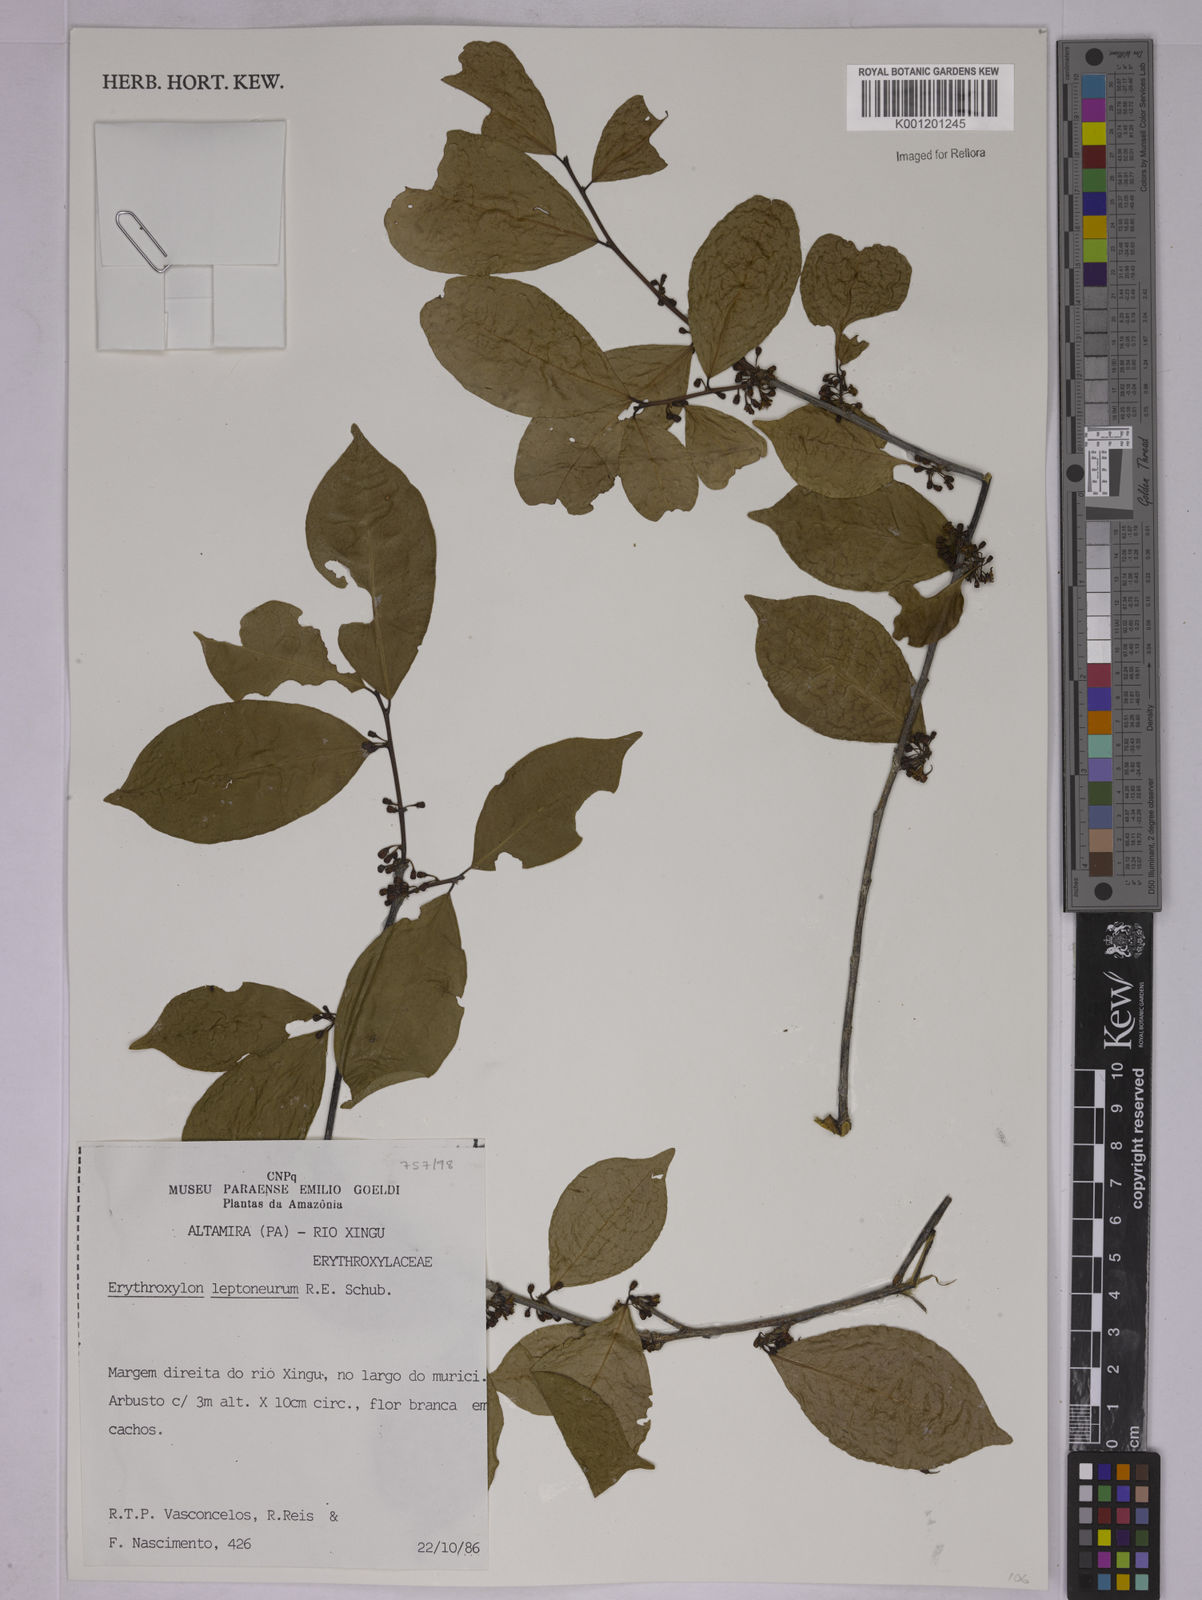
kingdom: Plantae
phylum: Tracheophyta
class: Magnoliopsida
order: Malpighiales
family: Erythroxylaceae
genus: Erythroxylum
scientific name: Erythroxylum leptoneurum
